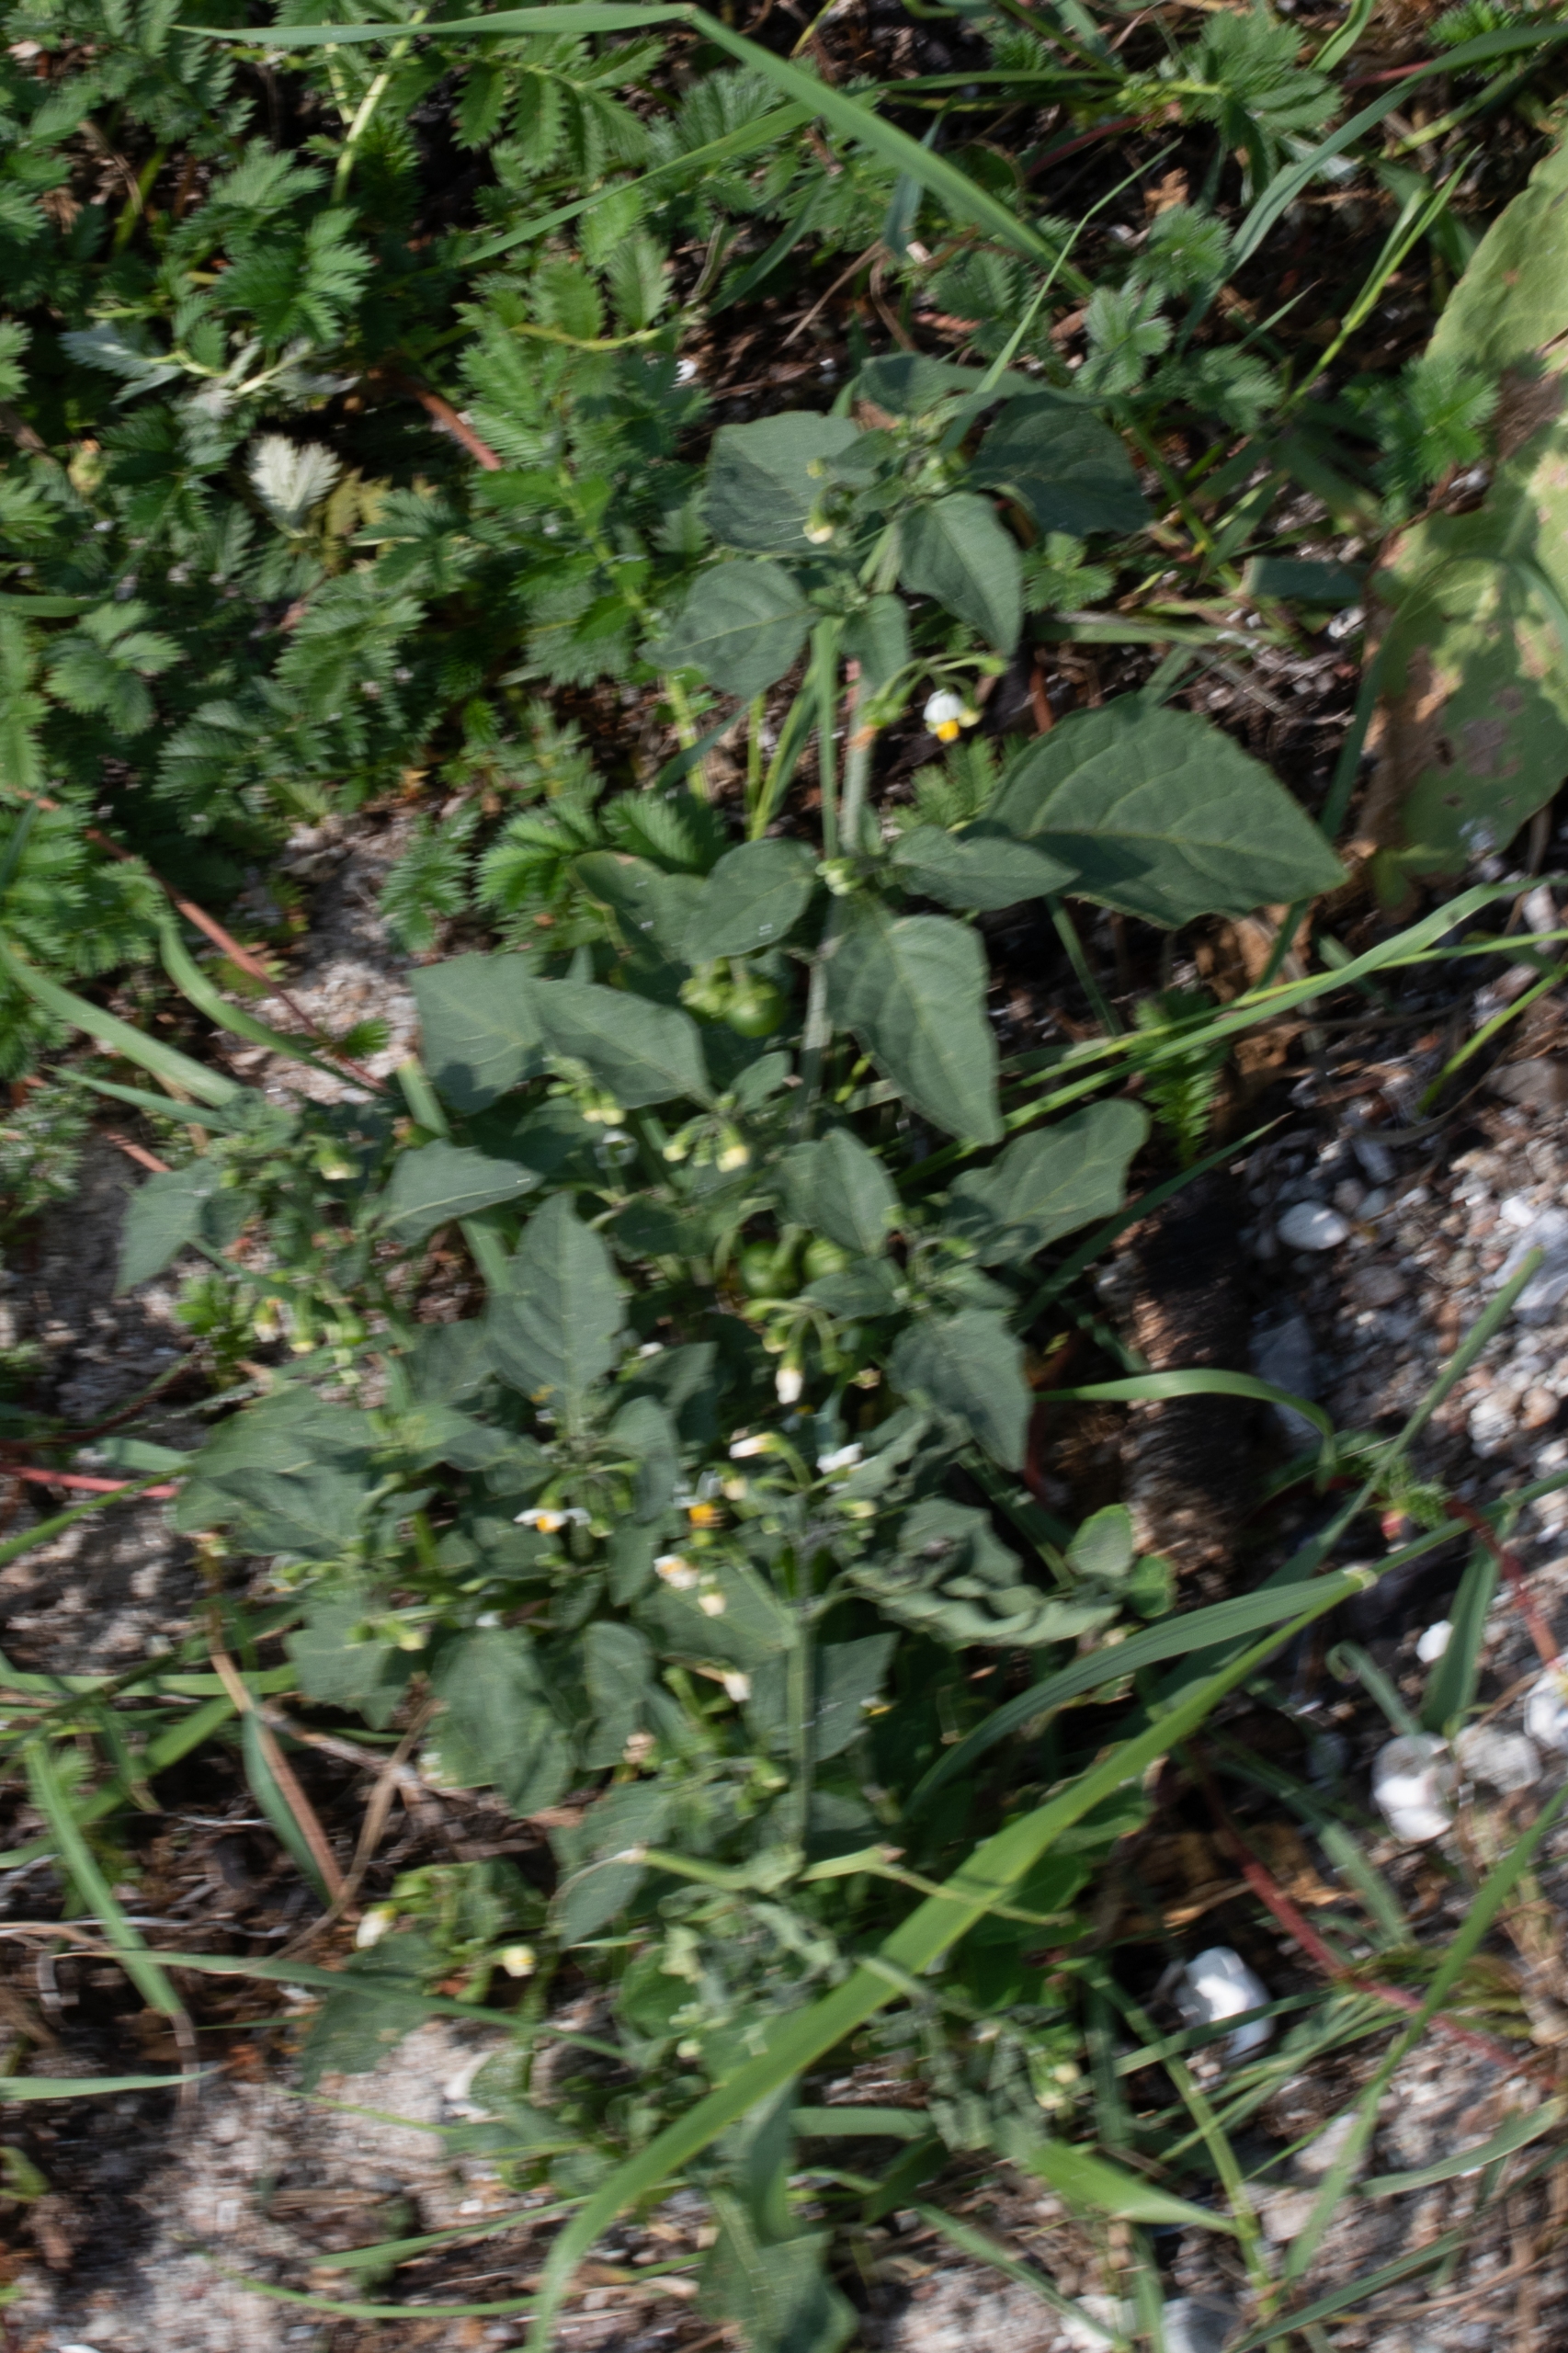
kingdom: Plantae
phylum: Tracheophyta
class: Magnoliopsida
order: Solanales
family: Solanaceae
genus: Solanum
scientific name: Solanum nigrum
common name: Sort natskygge
